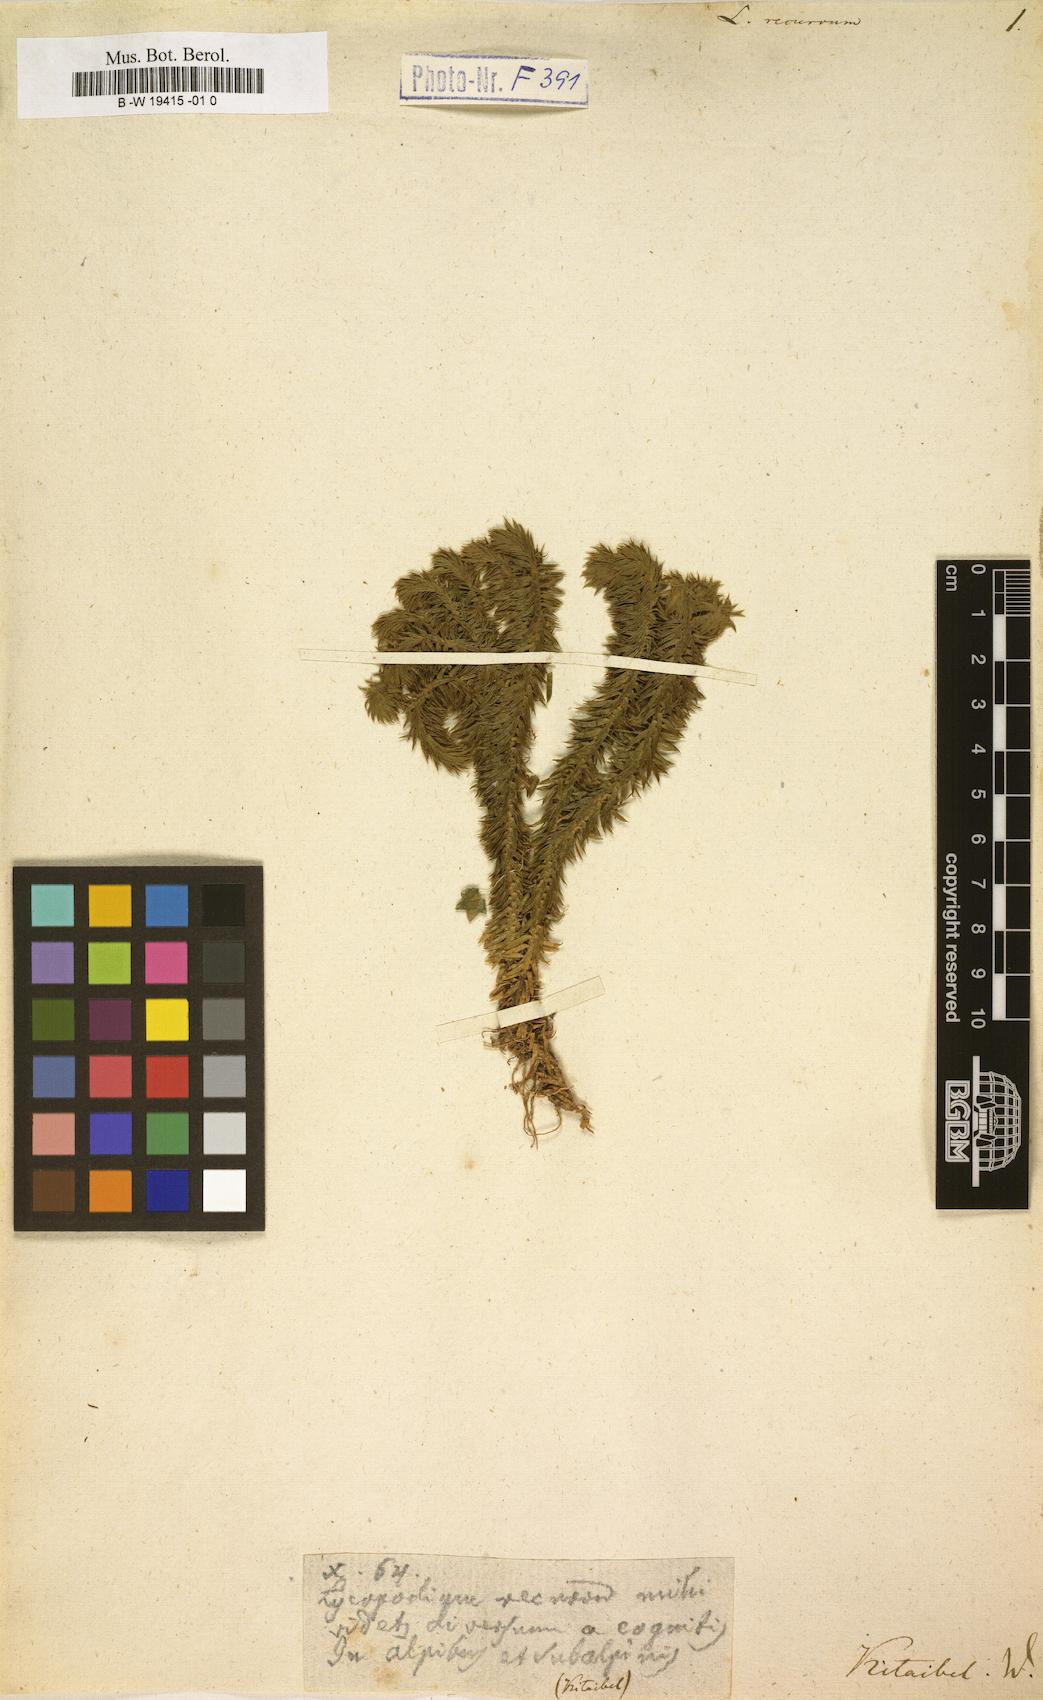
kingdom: Plantae
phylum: Tracheophyta
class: Lycopodiopsida
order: Lycopodiales
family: Lycopodiaceae
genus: Huperzia
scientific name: Huperzia selago
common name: Northern firmoss
